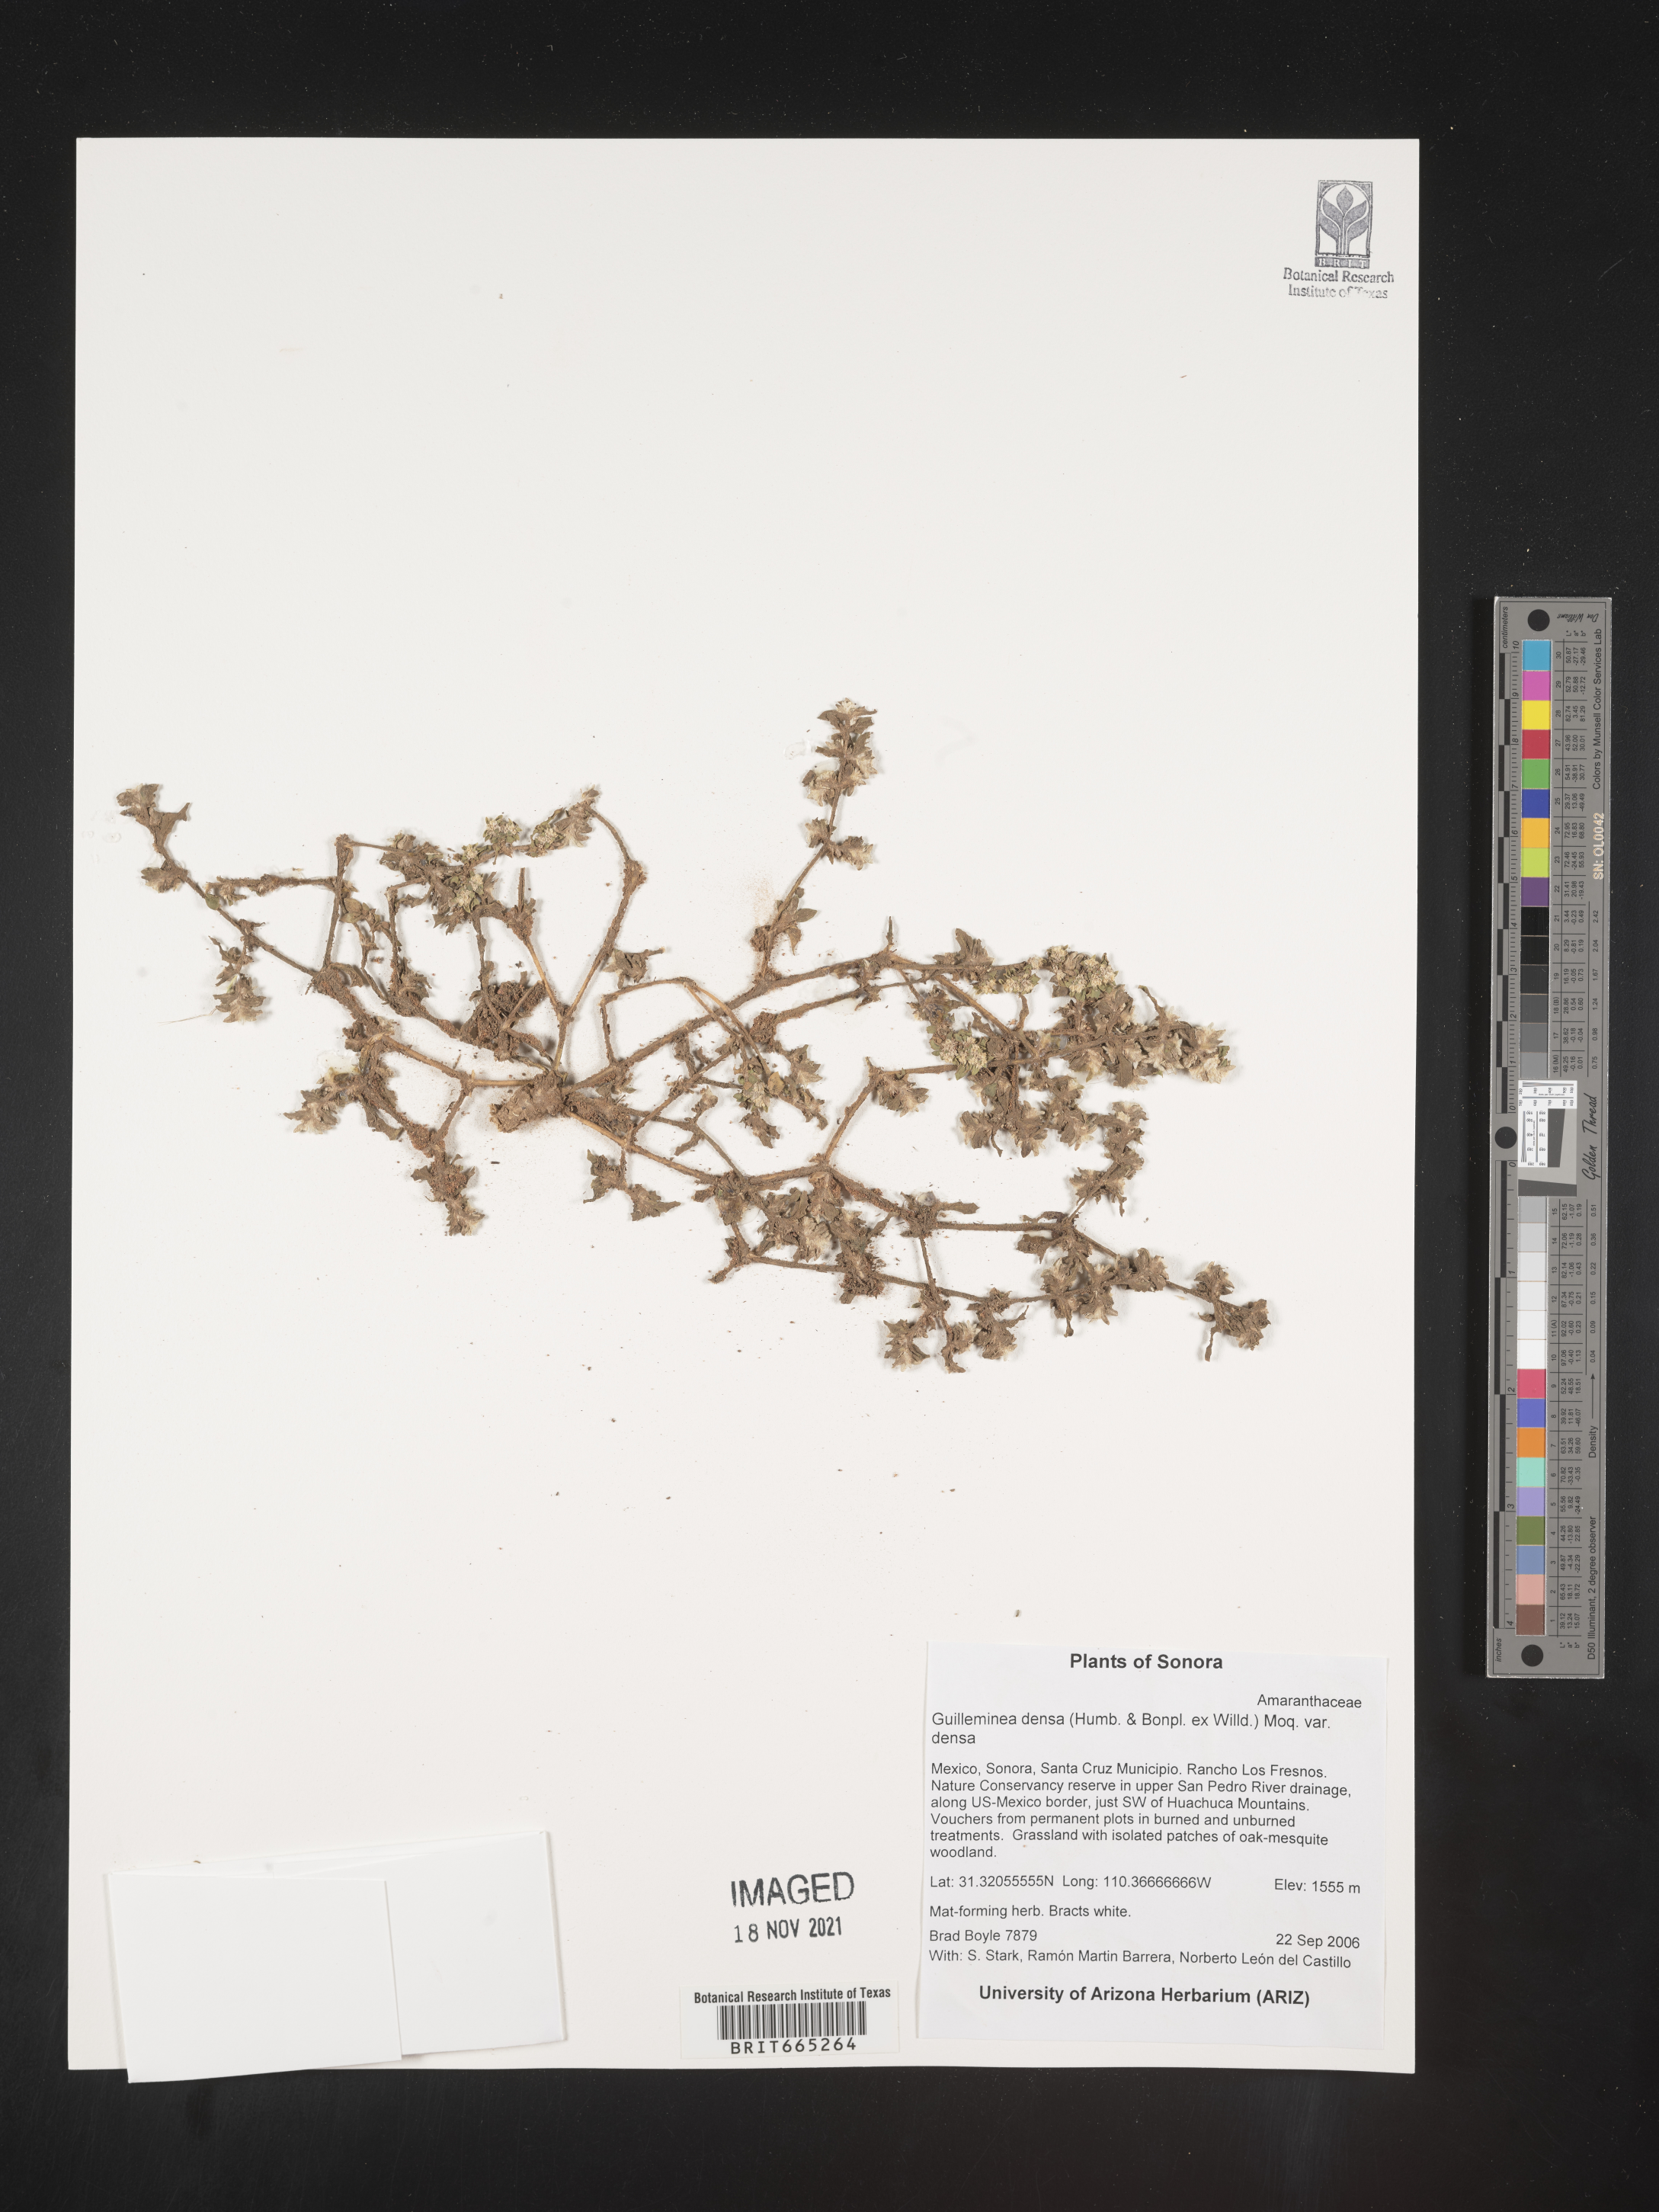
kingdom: Plantae
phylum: Tracheophyta
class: Magnoliopsida
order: Caryophyllales
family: Amaranthaceae
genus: Guilleminea
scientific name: Guilleminea densa
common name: Small matweed
